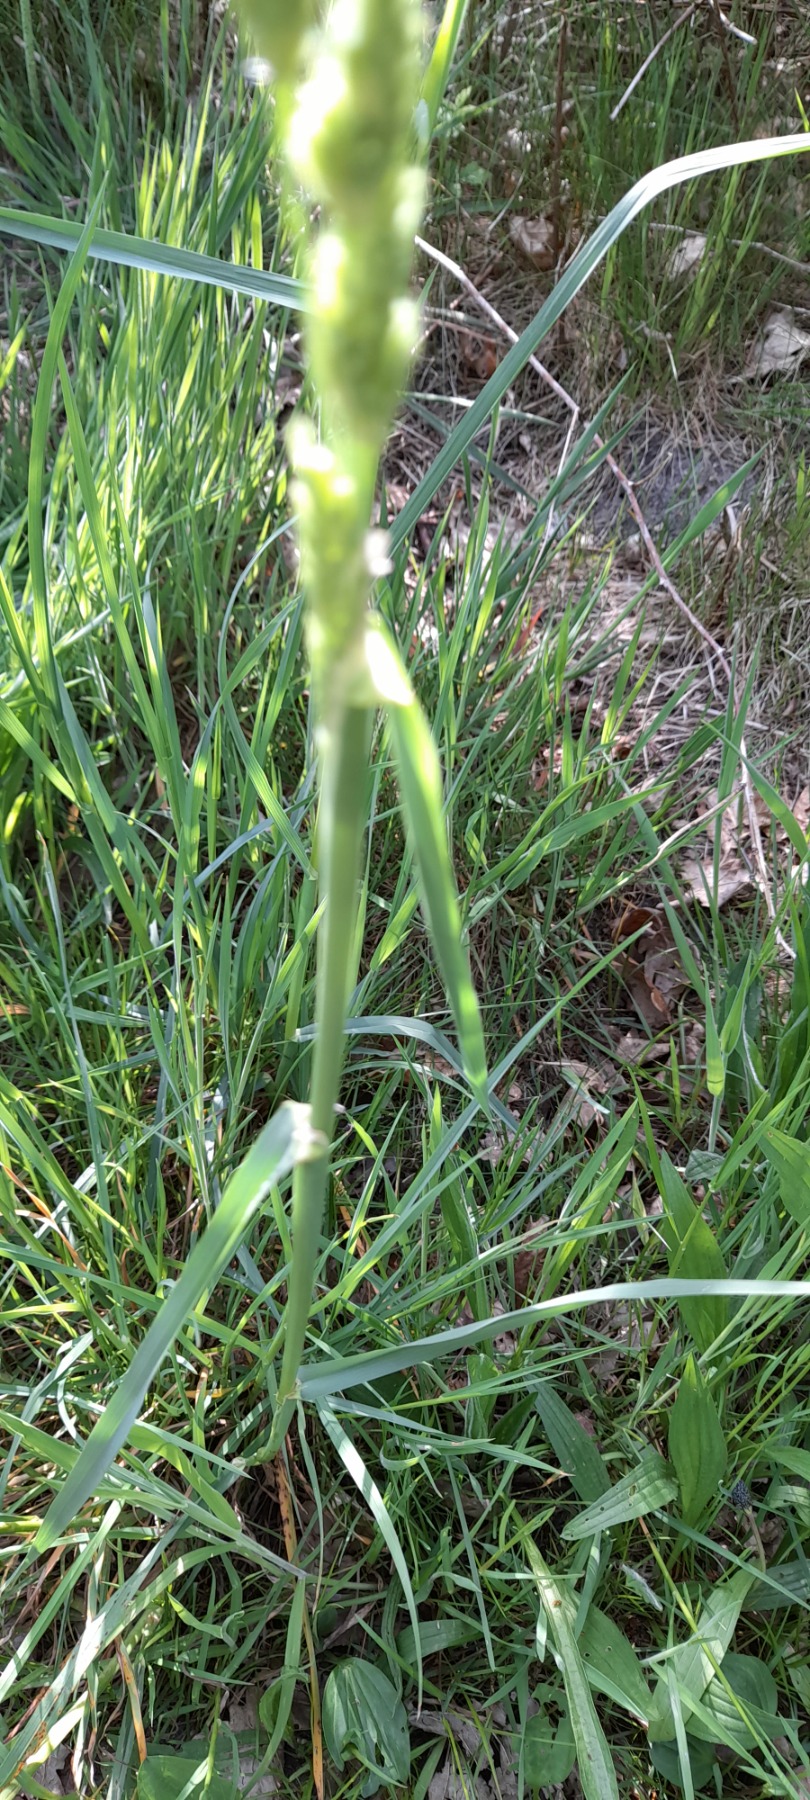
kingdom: Plantae
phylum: Tracheophyta
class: Liliopsida
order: Poales
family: Poaceae
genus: Dactylis
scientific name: Dactylis glomerata
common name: Almindelig hundegræs
